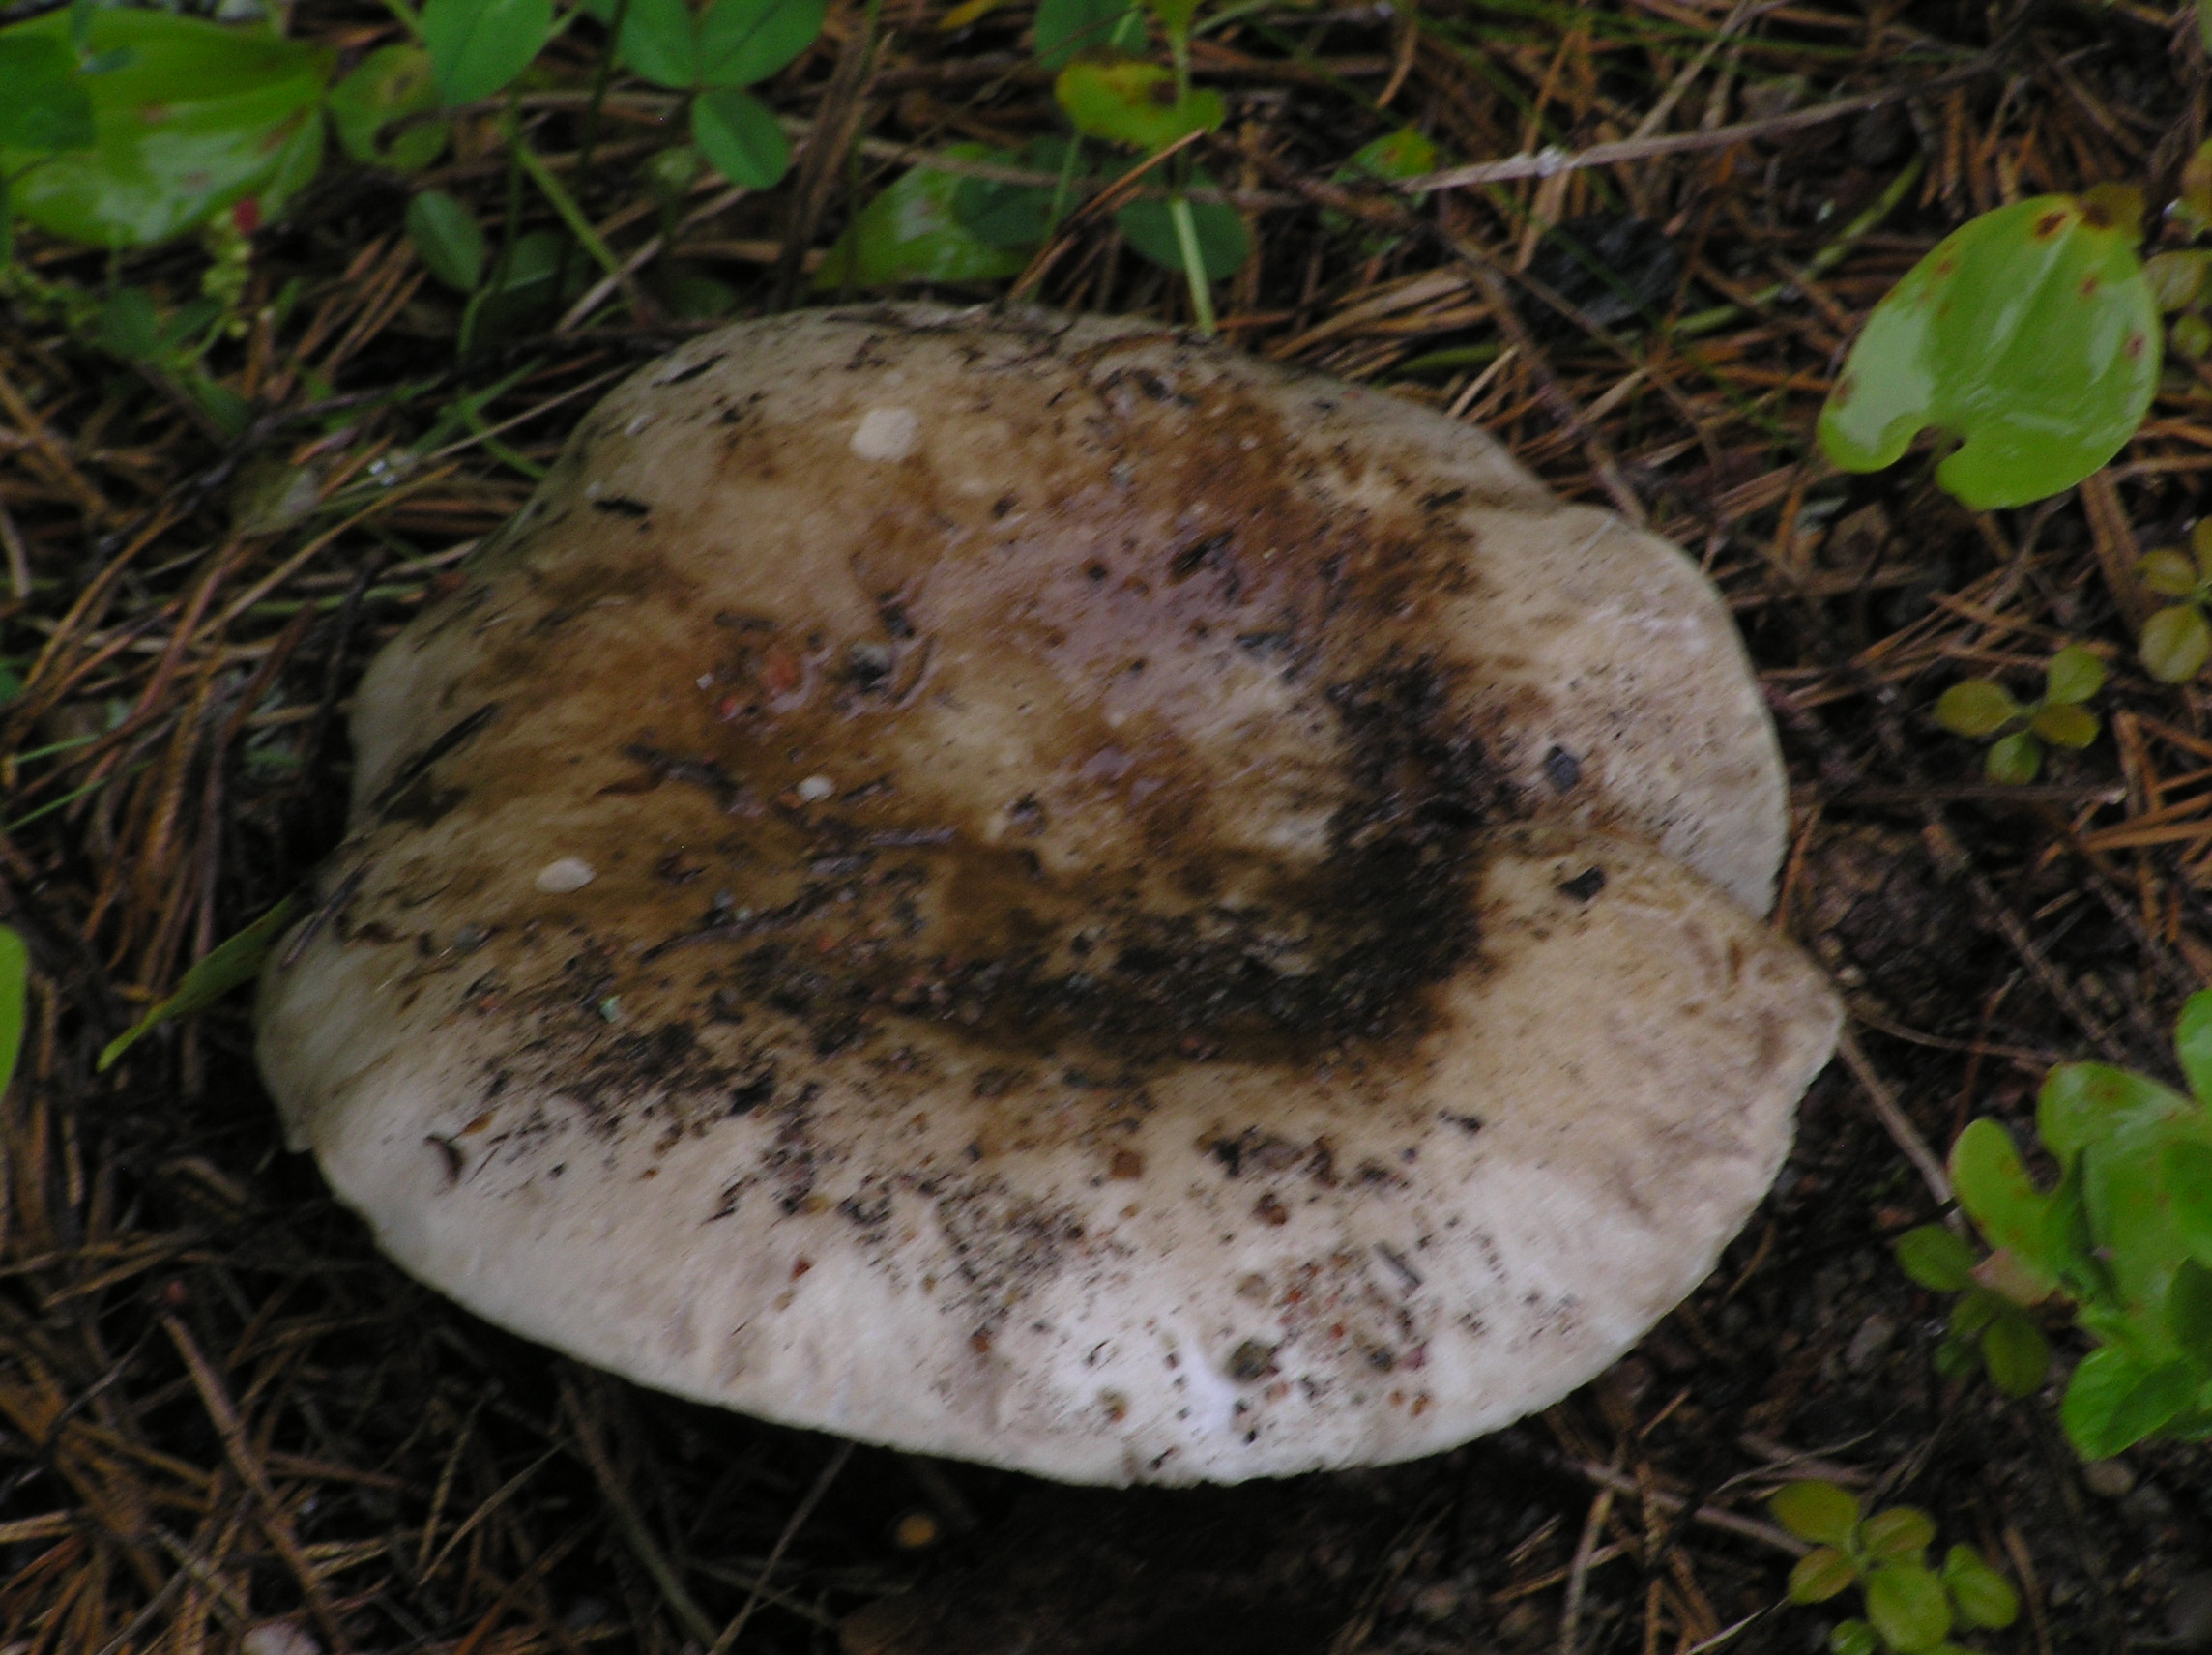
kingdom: Fungi
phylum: Basidiomycota
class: Agaricomycetes
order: Russulales
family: Russulaceae
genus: Russula
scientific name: Russula adusta
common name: Winecork brittlegill
